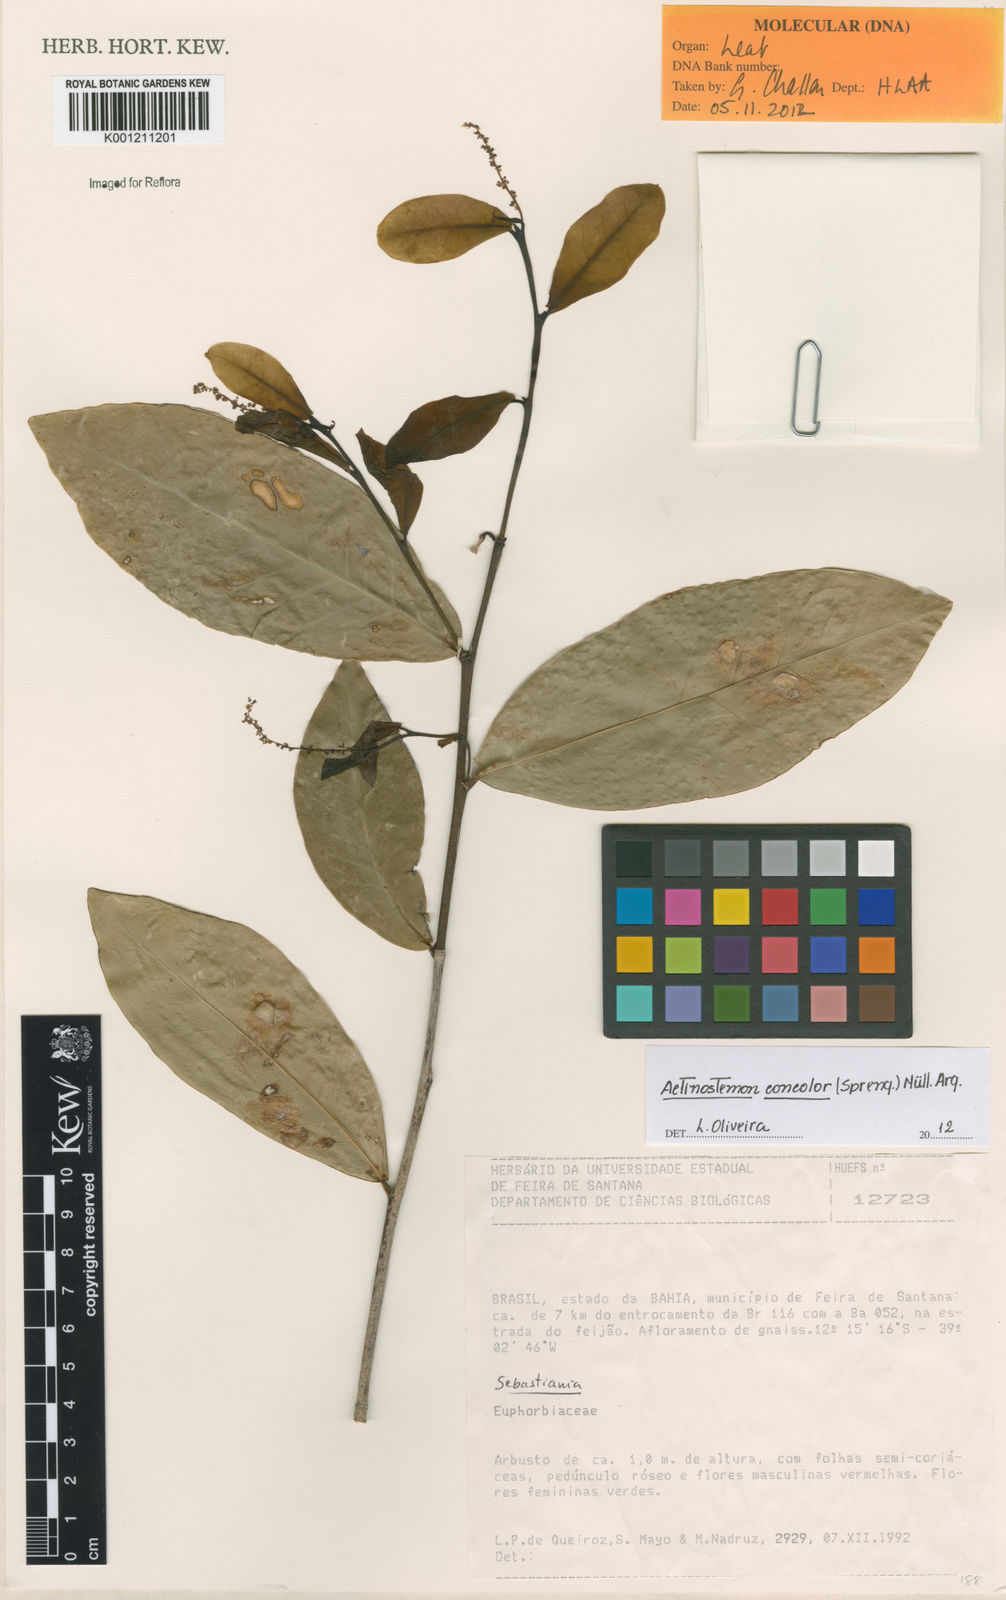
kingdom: Plantae
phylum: Tracheophyta
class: Magnoliopsida
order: Malpighiales
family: Euphorbiaceae
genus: Actinostemon
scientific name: Actinostemon
